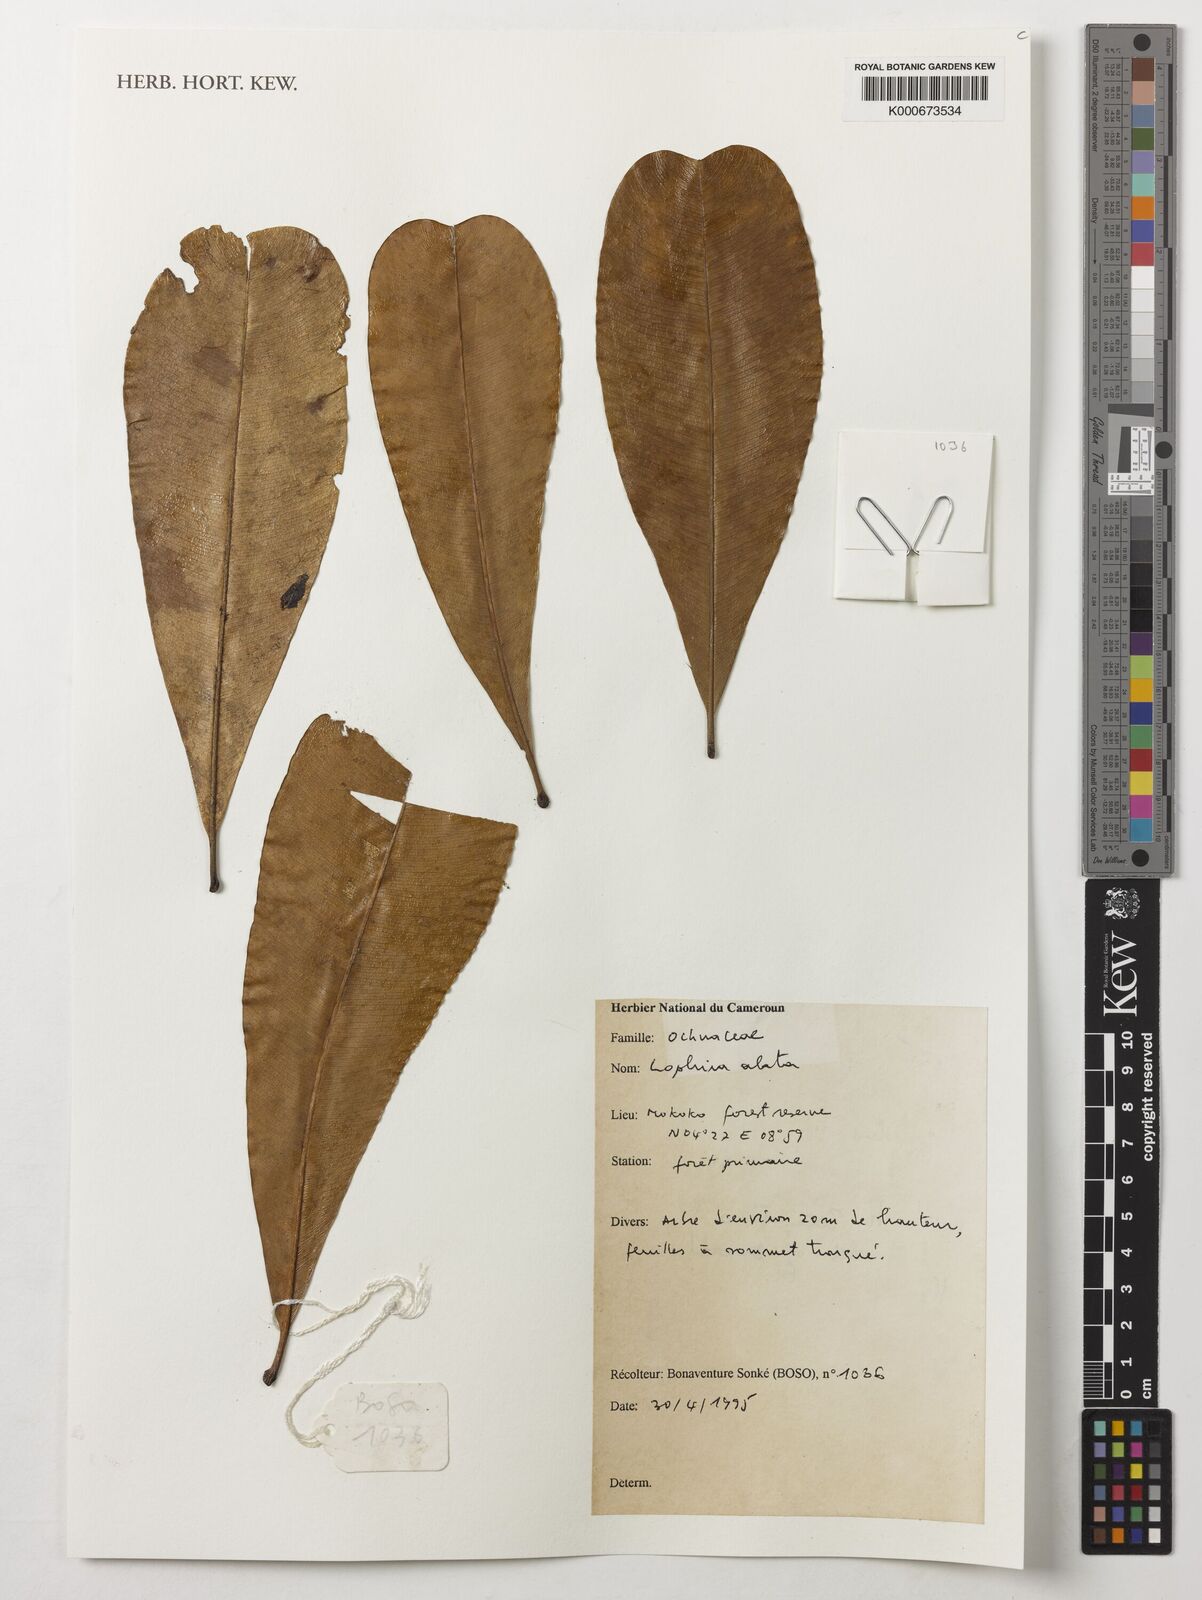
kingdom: Plantae
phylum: Tracheophyta
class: Magnoliopsida
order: Malpighiales
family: Ochnaceae
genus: Lophira
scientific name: Lophira alata
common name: Azobe
